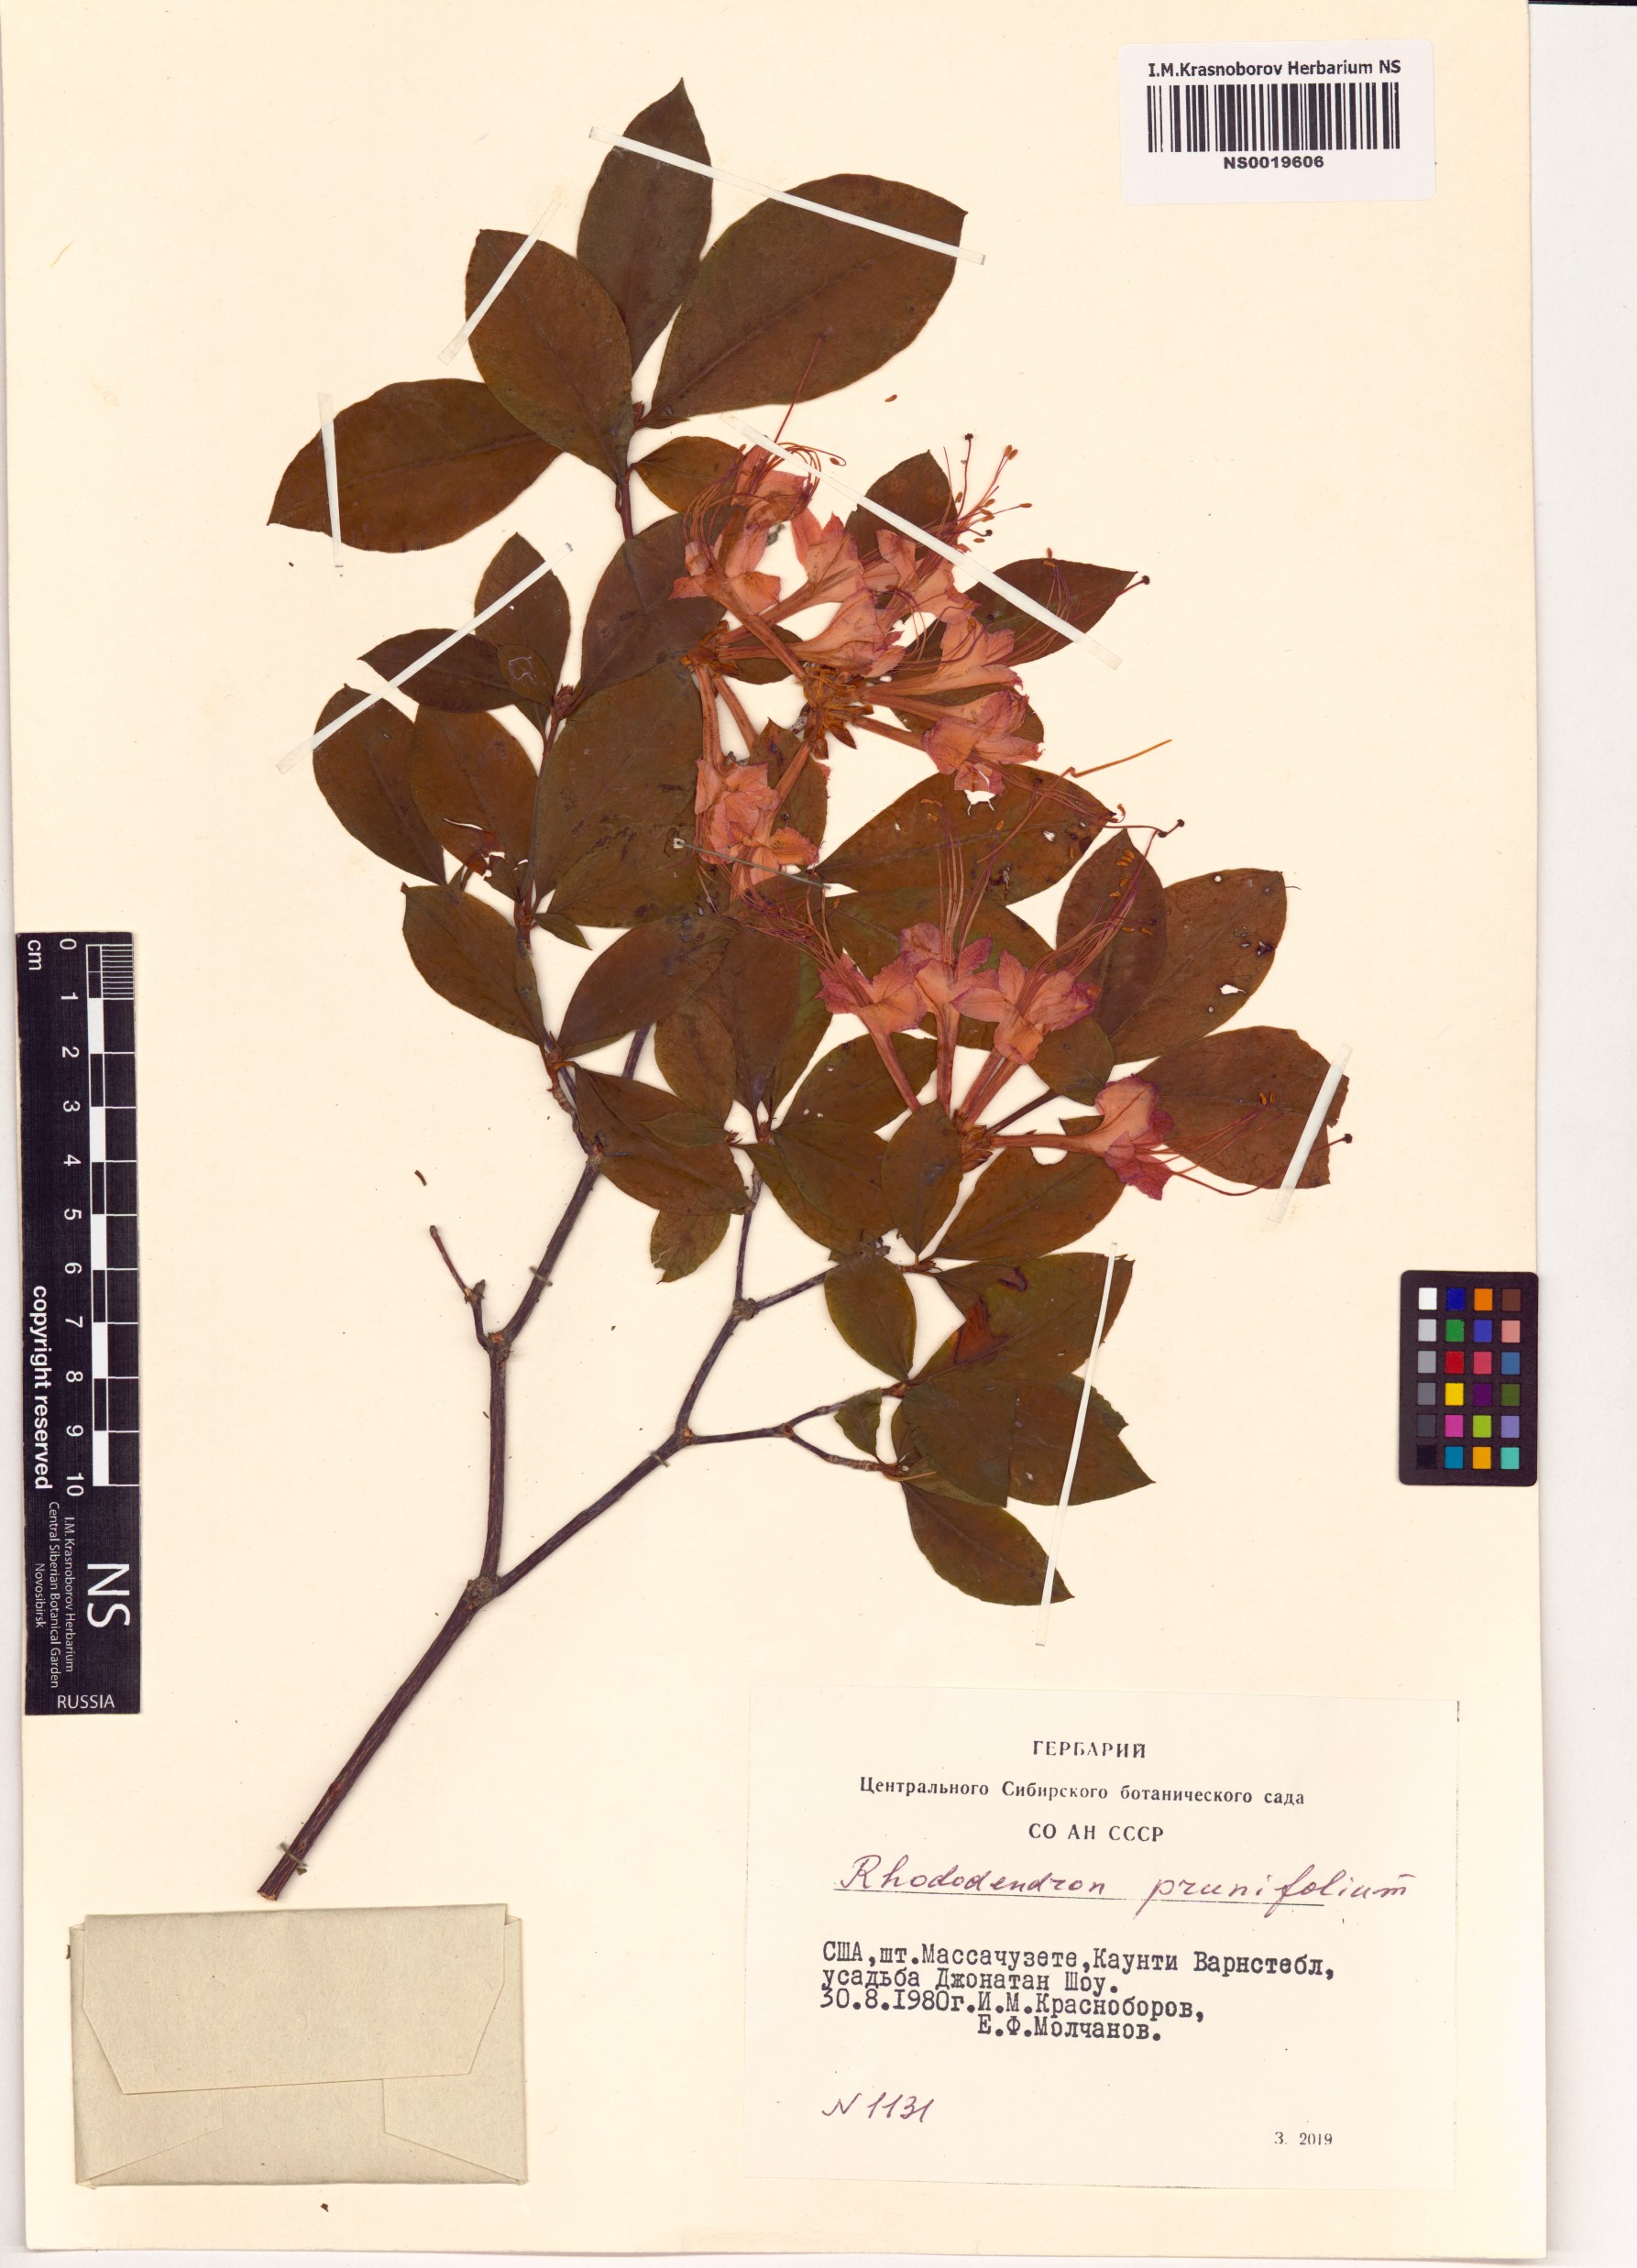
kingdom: Plantae
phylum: Tracheophyta
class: Magnoliopsida
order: Ericales
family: Ericaceae
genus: Rhododendron
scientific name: Rhododendron prunifolium
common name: Plum-leaf azalea
